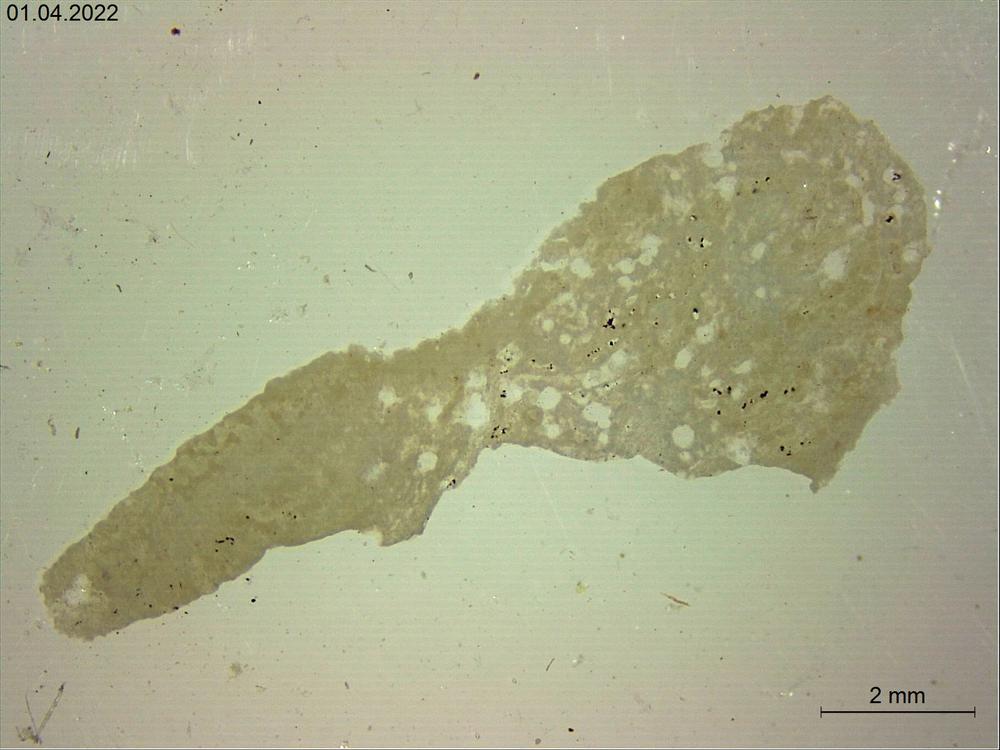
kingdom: Animalia
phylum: Porifera
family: Stromatoporidae
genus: Stromatopora
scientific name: Stromatopora
